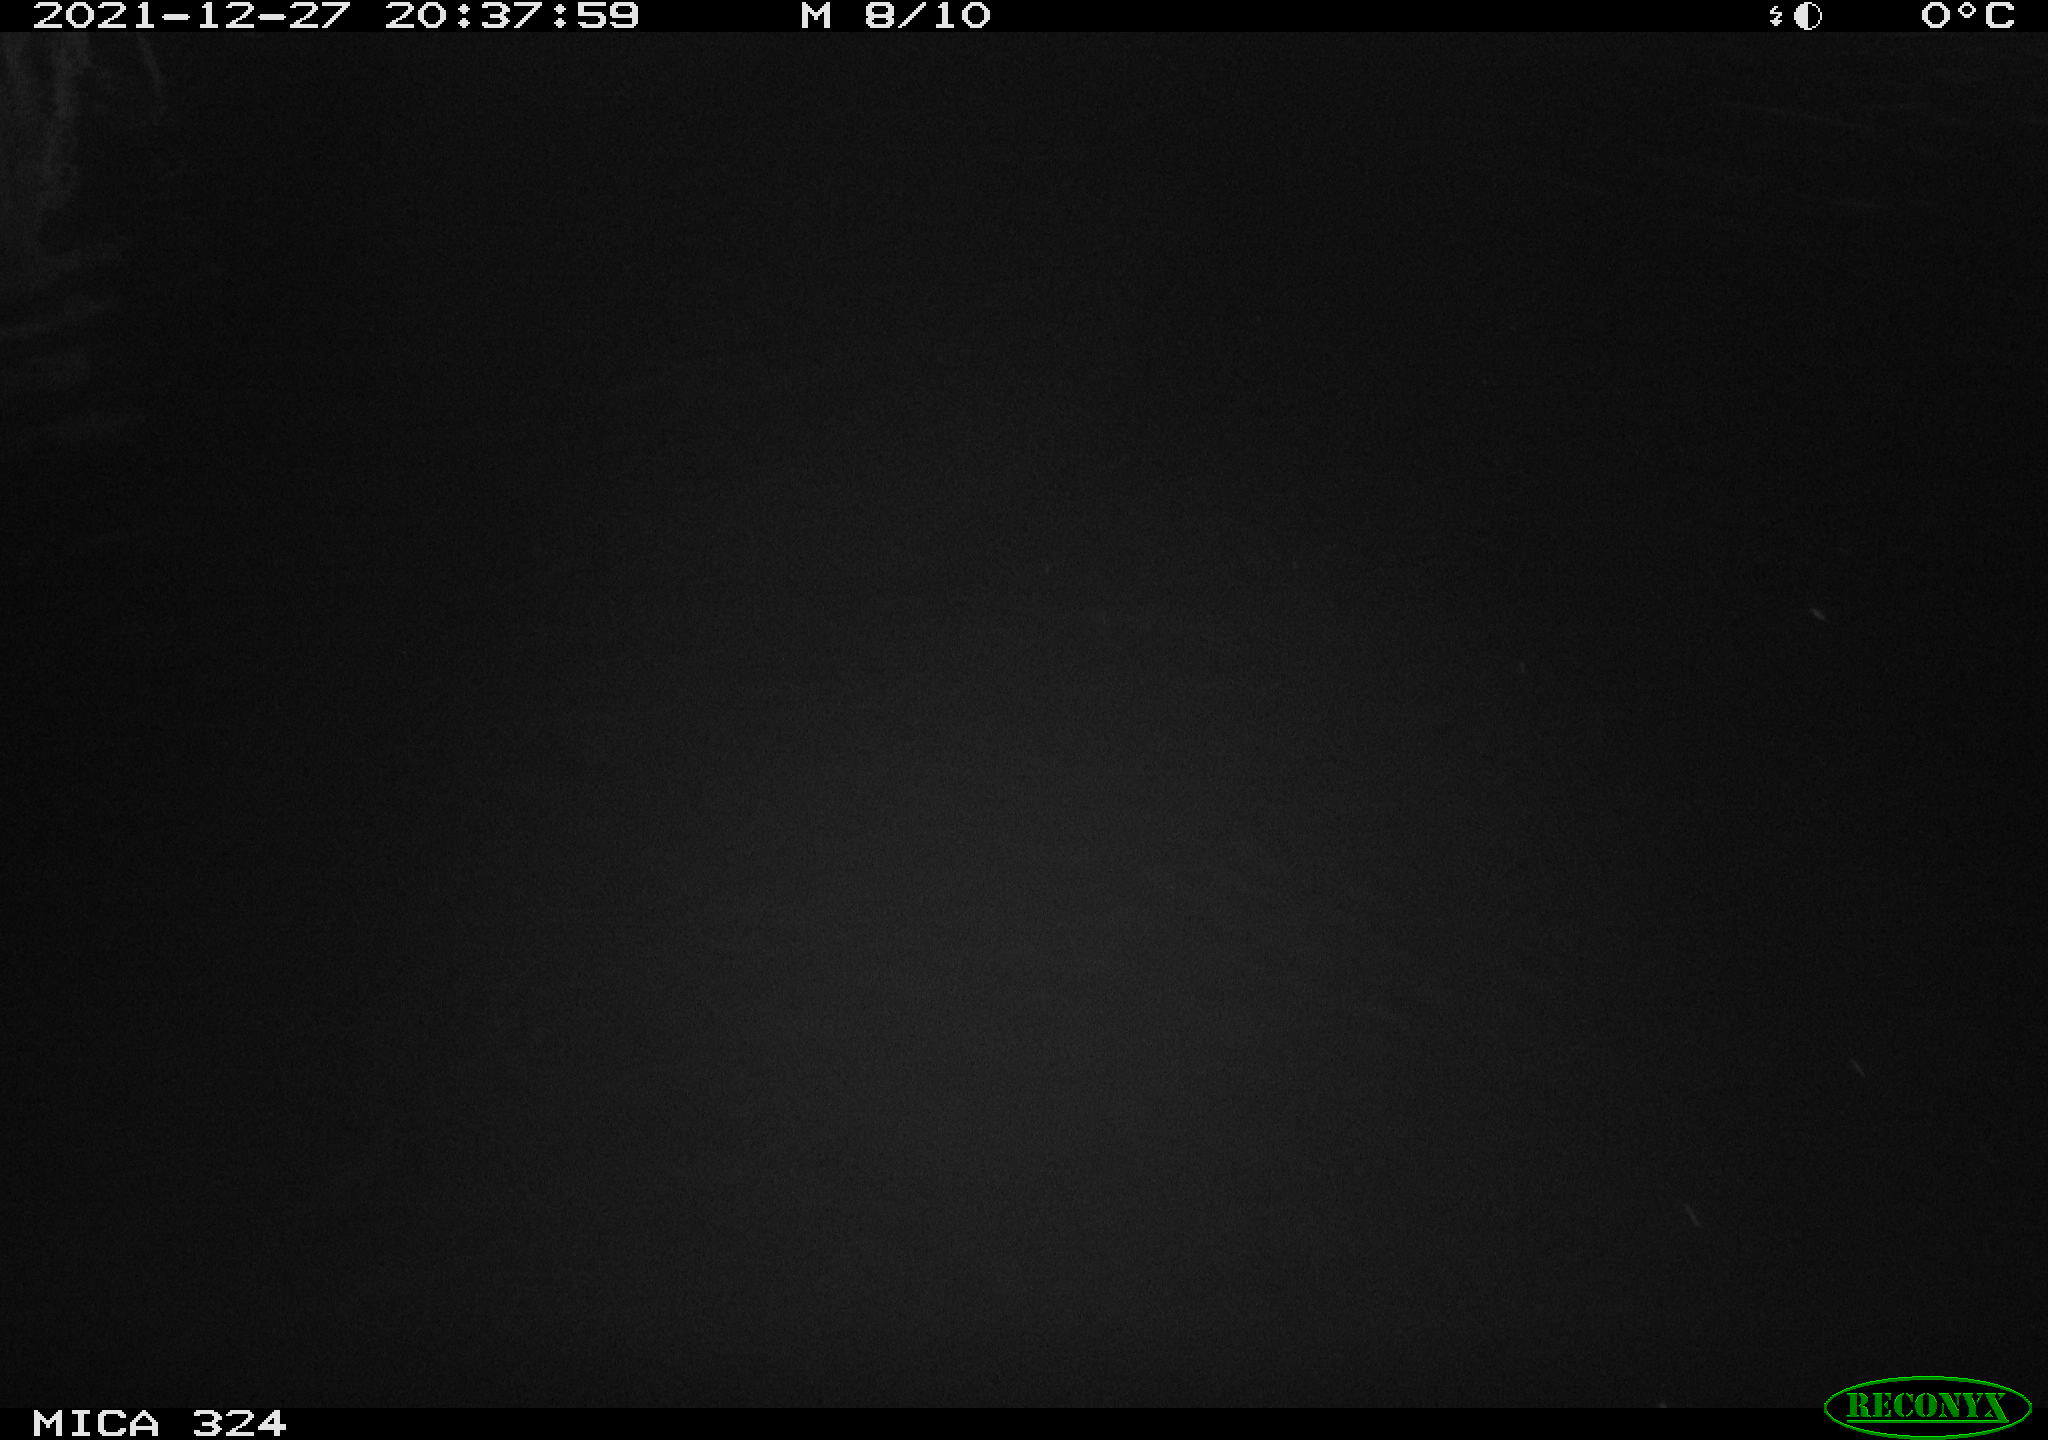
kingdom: Animalia
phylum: Chordata
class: Mammalia
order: Rodentia
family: Cricetidae
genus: Ondatra
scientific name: Ondatra zibethicus
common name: Muskrat
